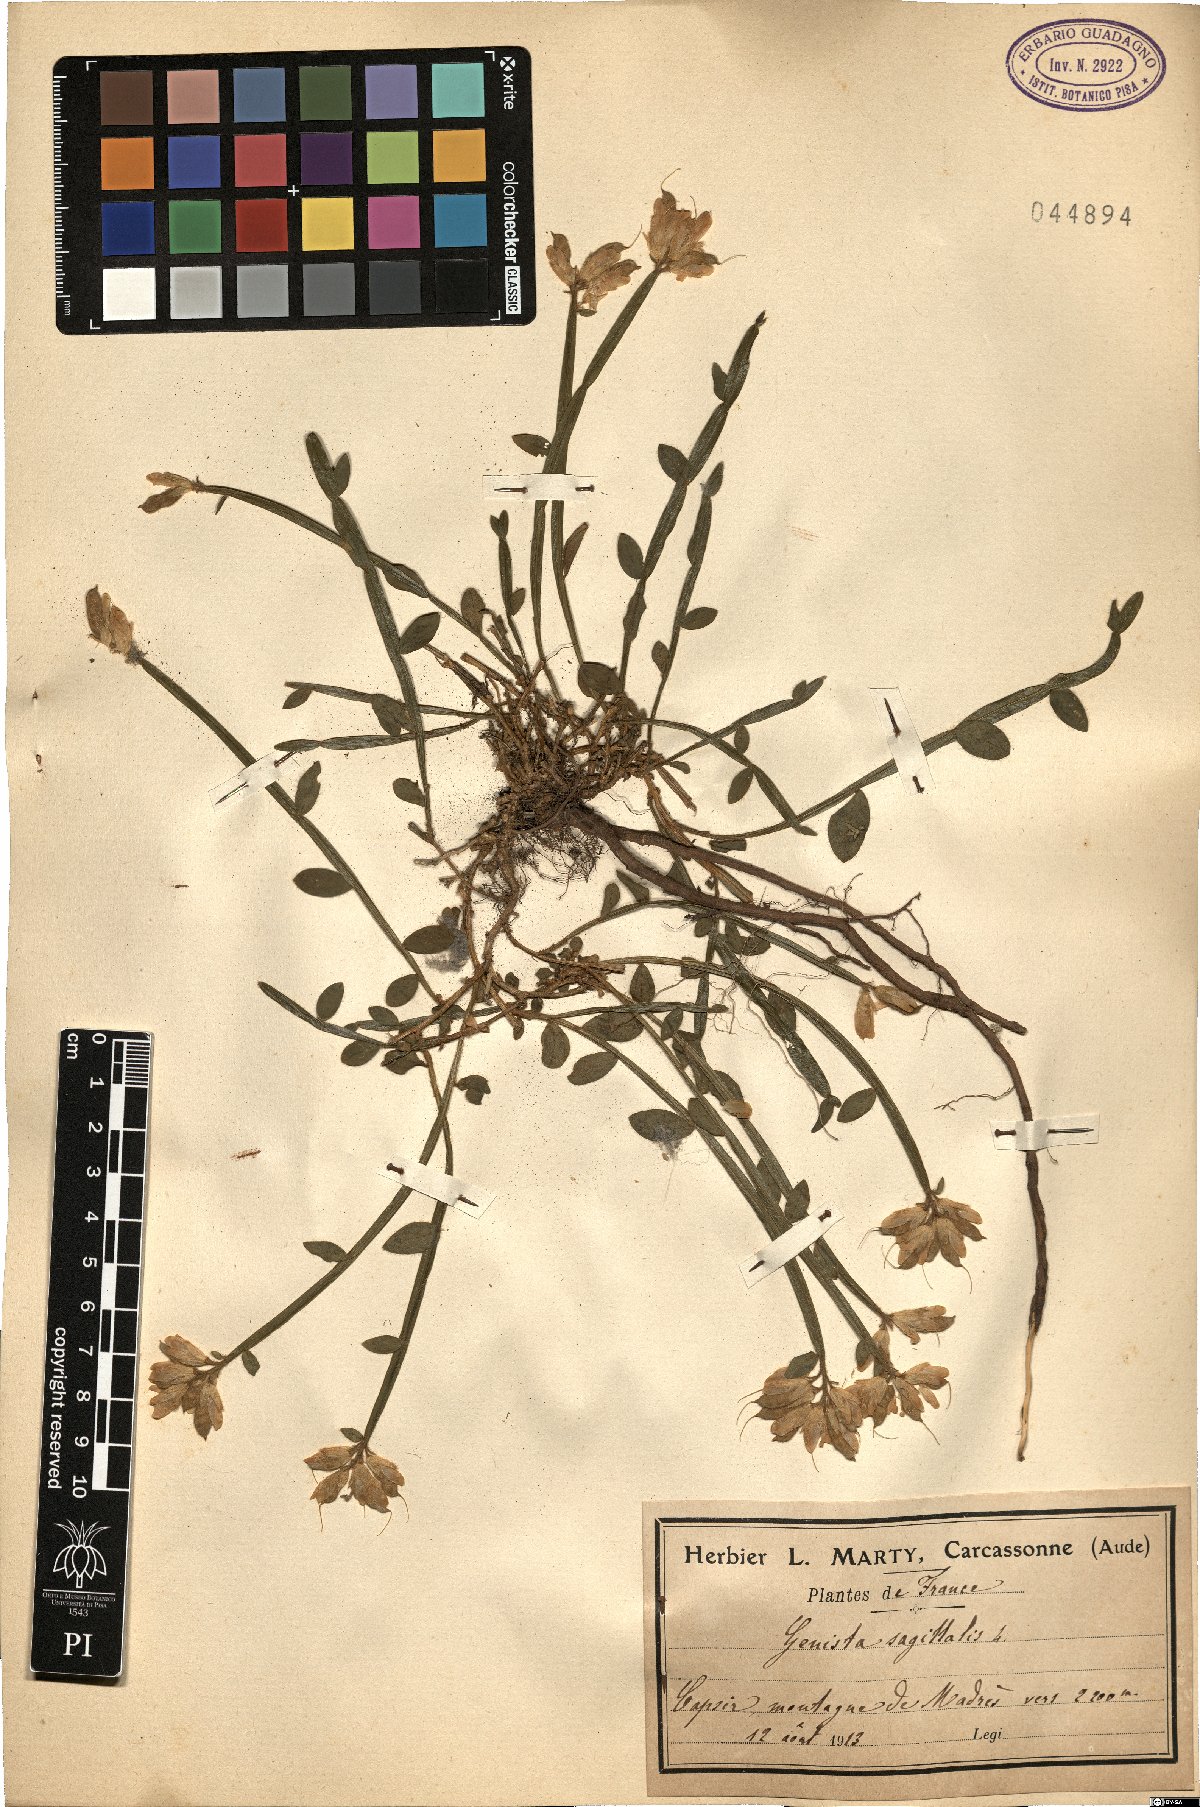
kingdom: Plantae
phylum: Tracheophyta
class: Magnoliopsida
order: Fabales
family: Fabaceae
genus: Genista
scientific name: Genista sagittalis
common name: Winged greenweed
